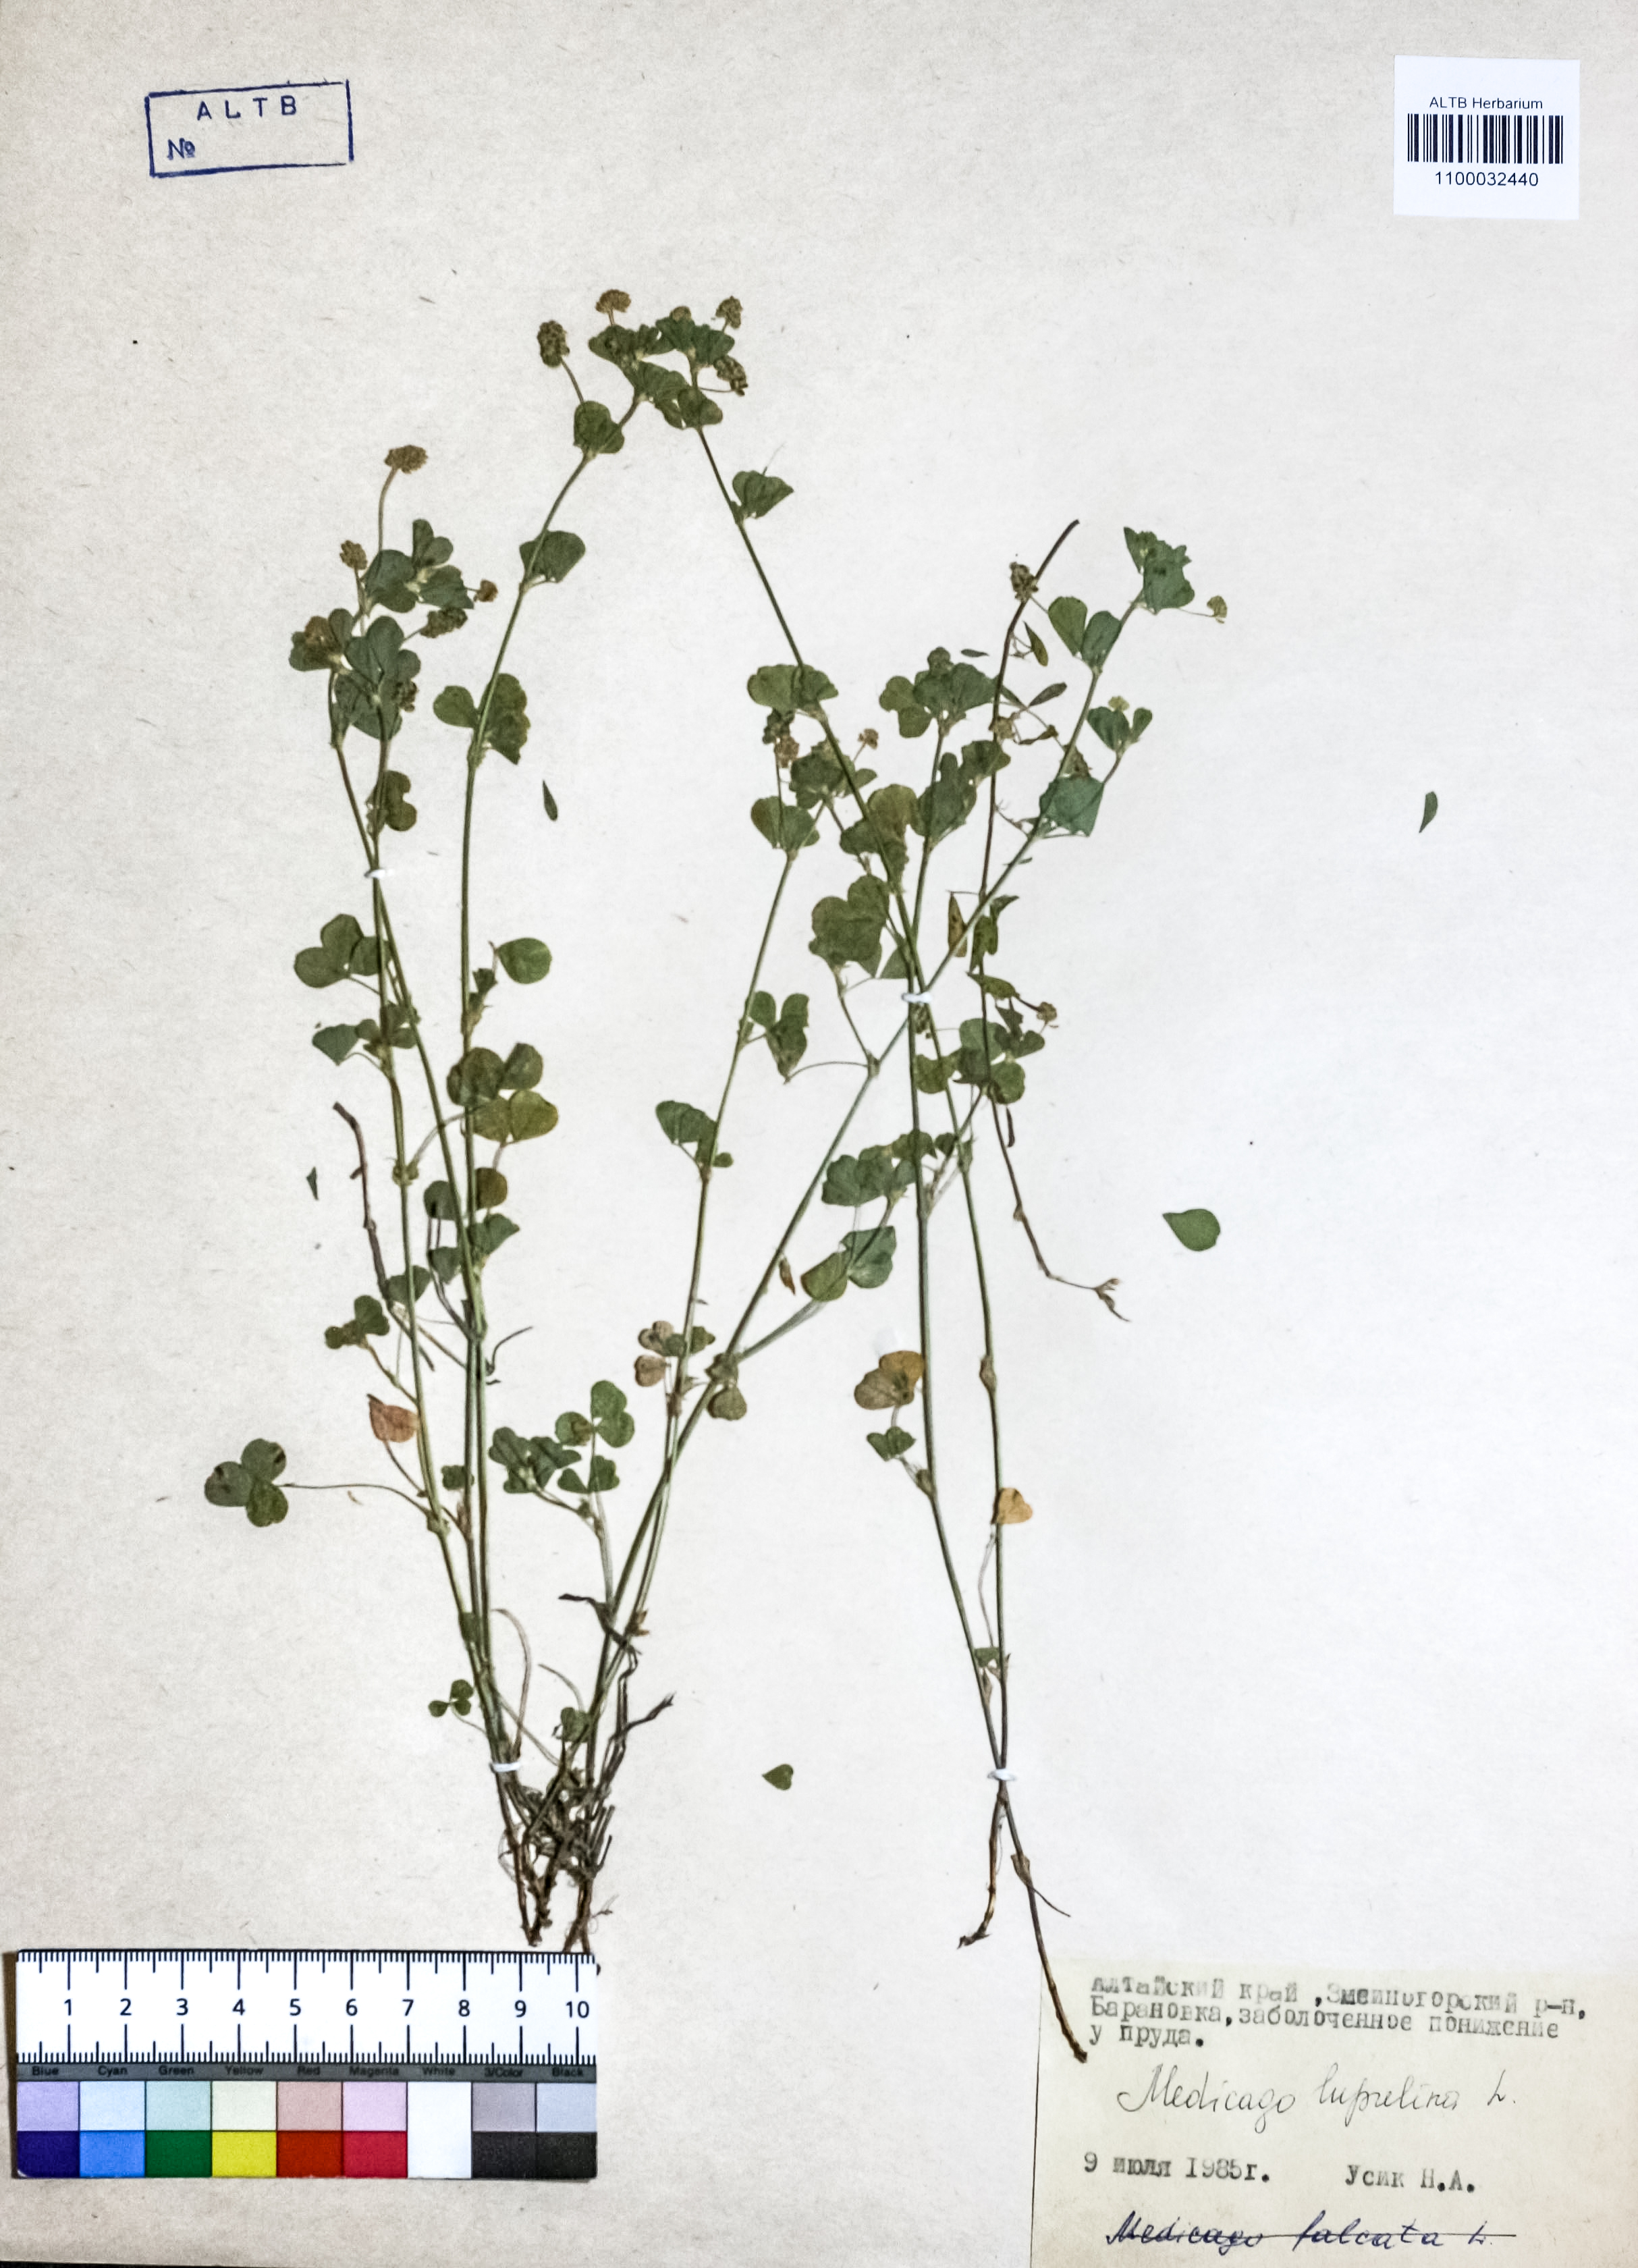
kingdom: Plantae
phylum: Tracheophyta
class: Magnoliopsida
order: Fabales
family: Fabaceae
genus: Medicago
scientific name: Medicago lupulina
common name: Black medick
